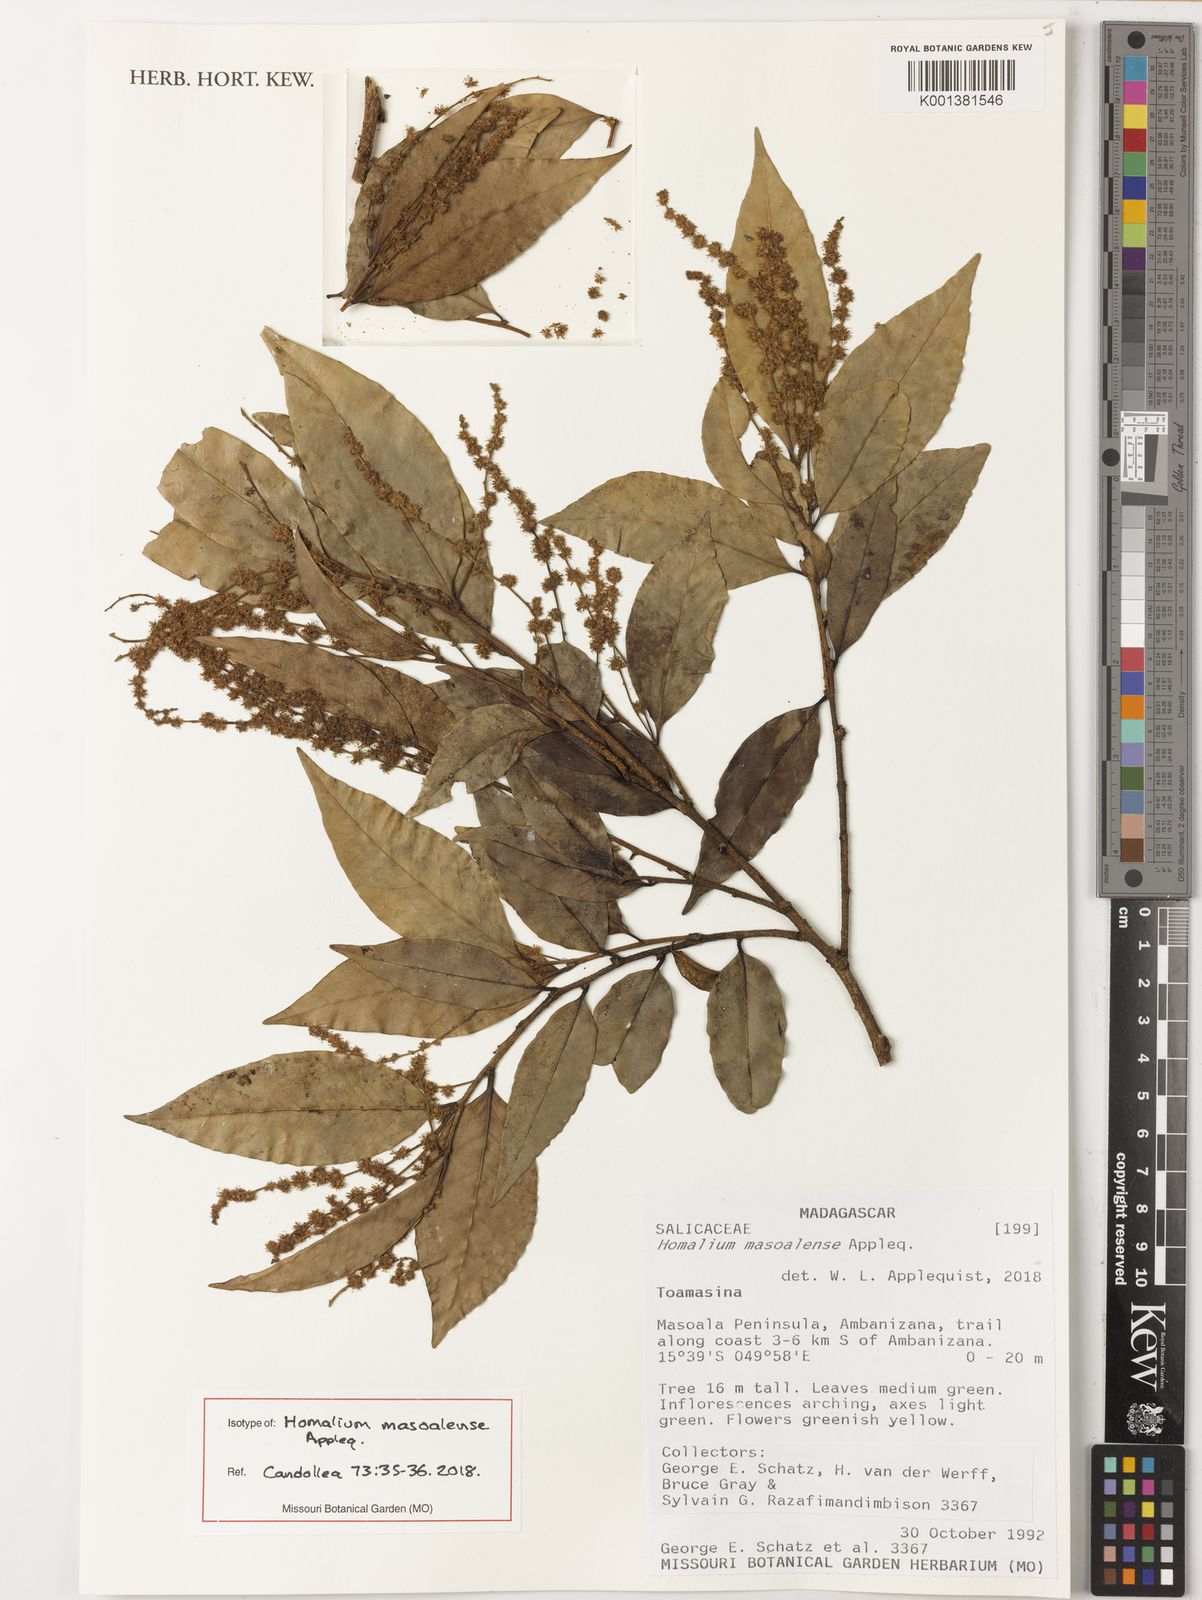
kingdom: Plantae
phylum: Tracheophyta
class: Magnoliopsida
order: Malpighiales
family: Salicaceae
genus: Homalium
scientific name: Homalium masoalense
